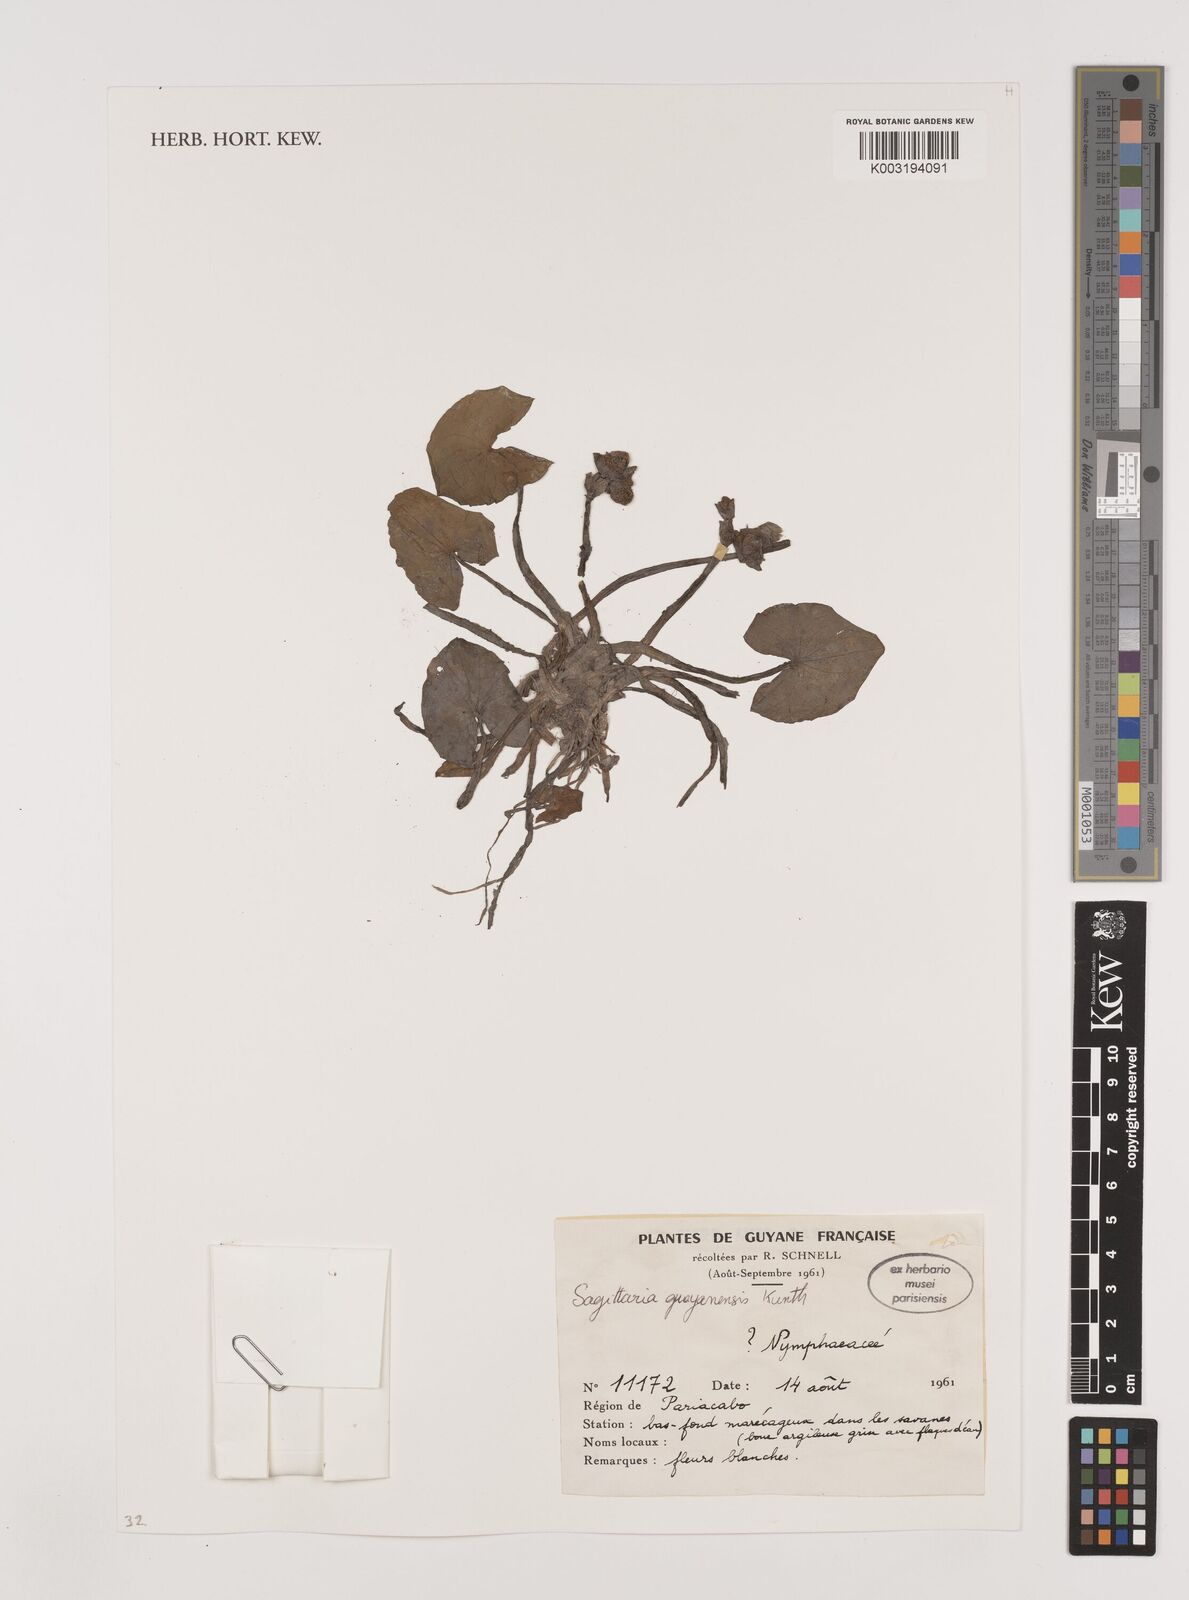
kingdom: Plantae
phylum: Tracheophyta
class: Liliopsida
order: Alismatales
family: Alismataceae
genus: Sagittaria
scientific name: Sagittaria guayanensis
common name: Guyanese arrowhead
